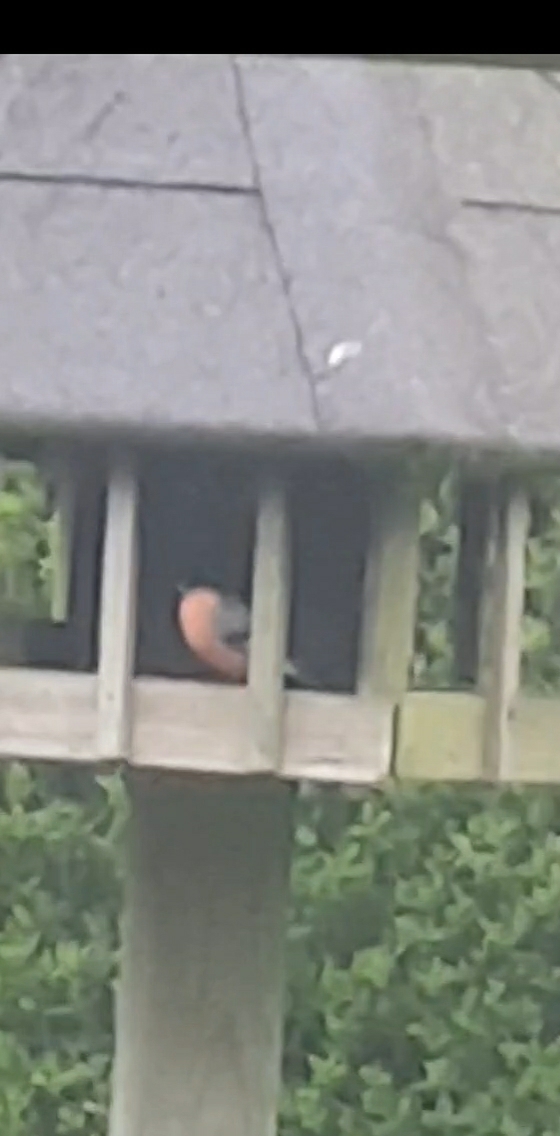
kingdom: Animalia
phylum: Chordata
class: Aves
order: Passeriformes
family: Fringillidae
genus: Pyrrhula
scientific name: Pyrrhula pyrrhula
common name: Dompap
